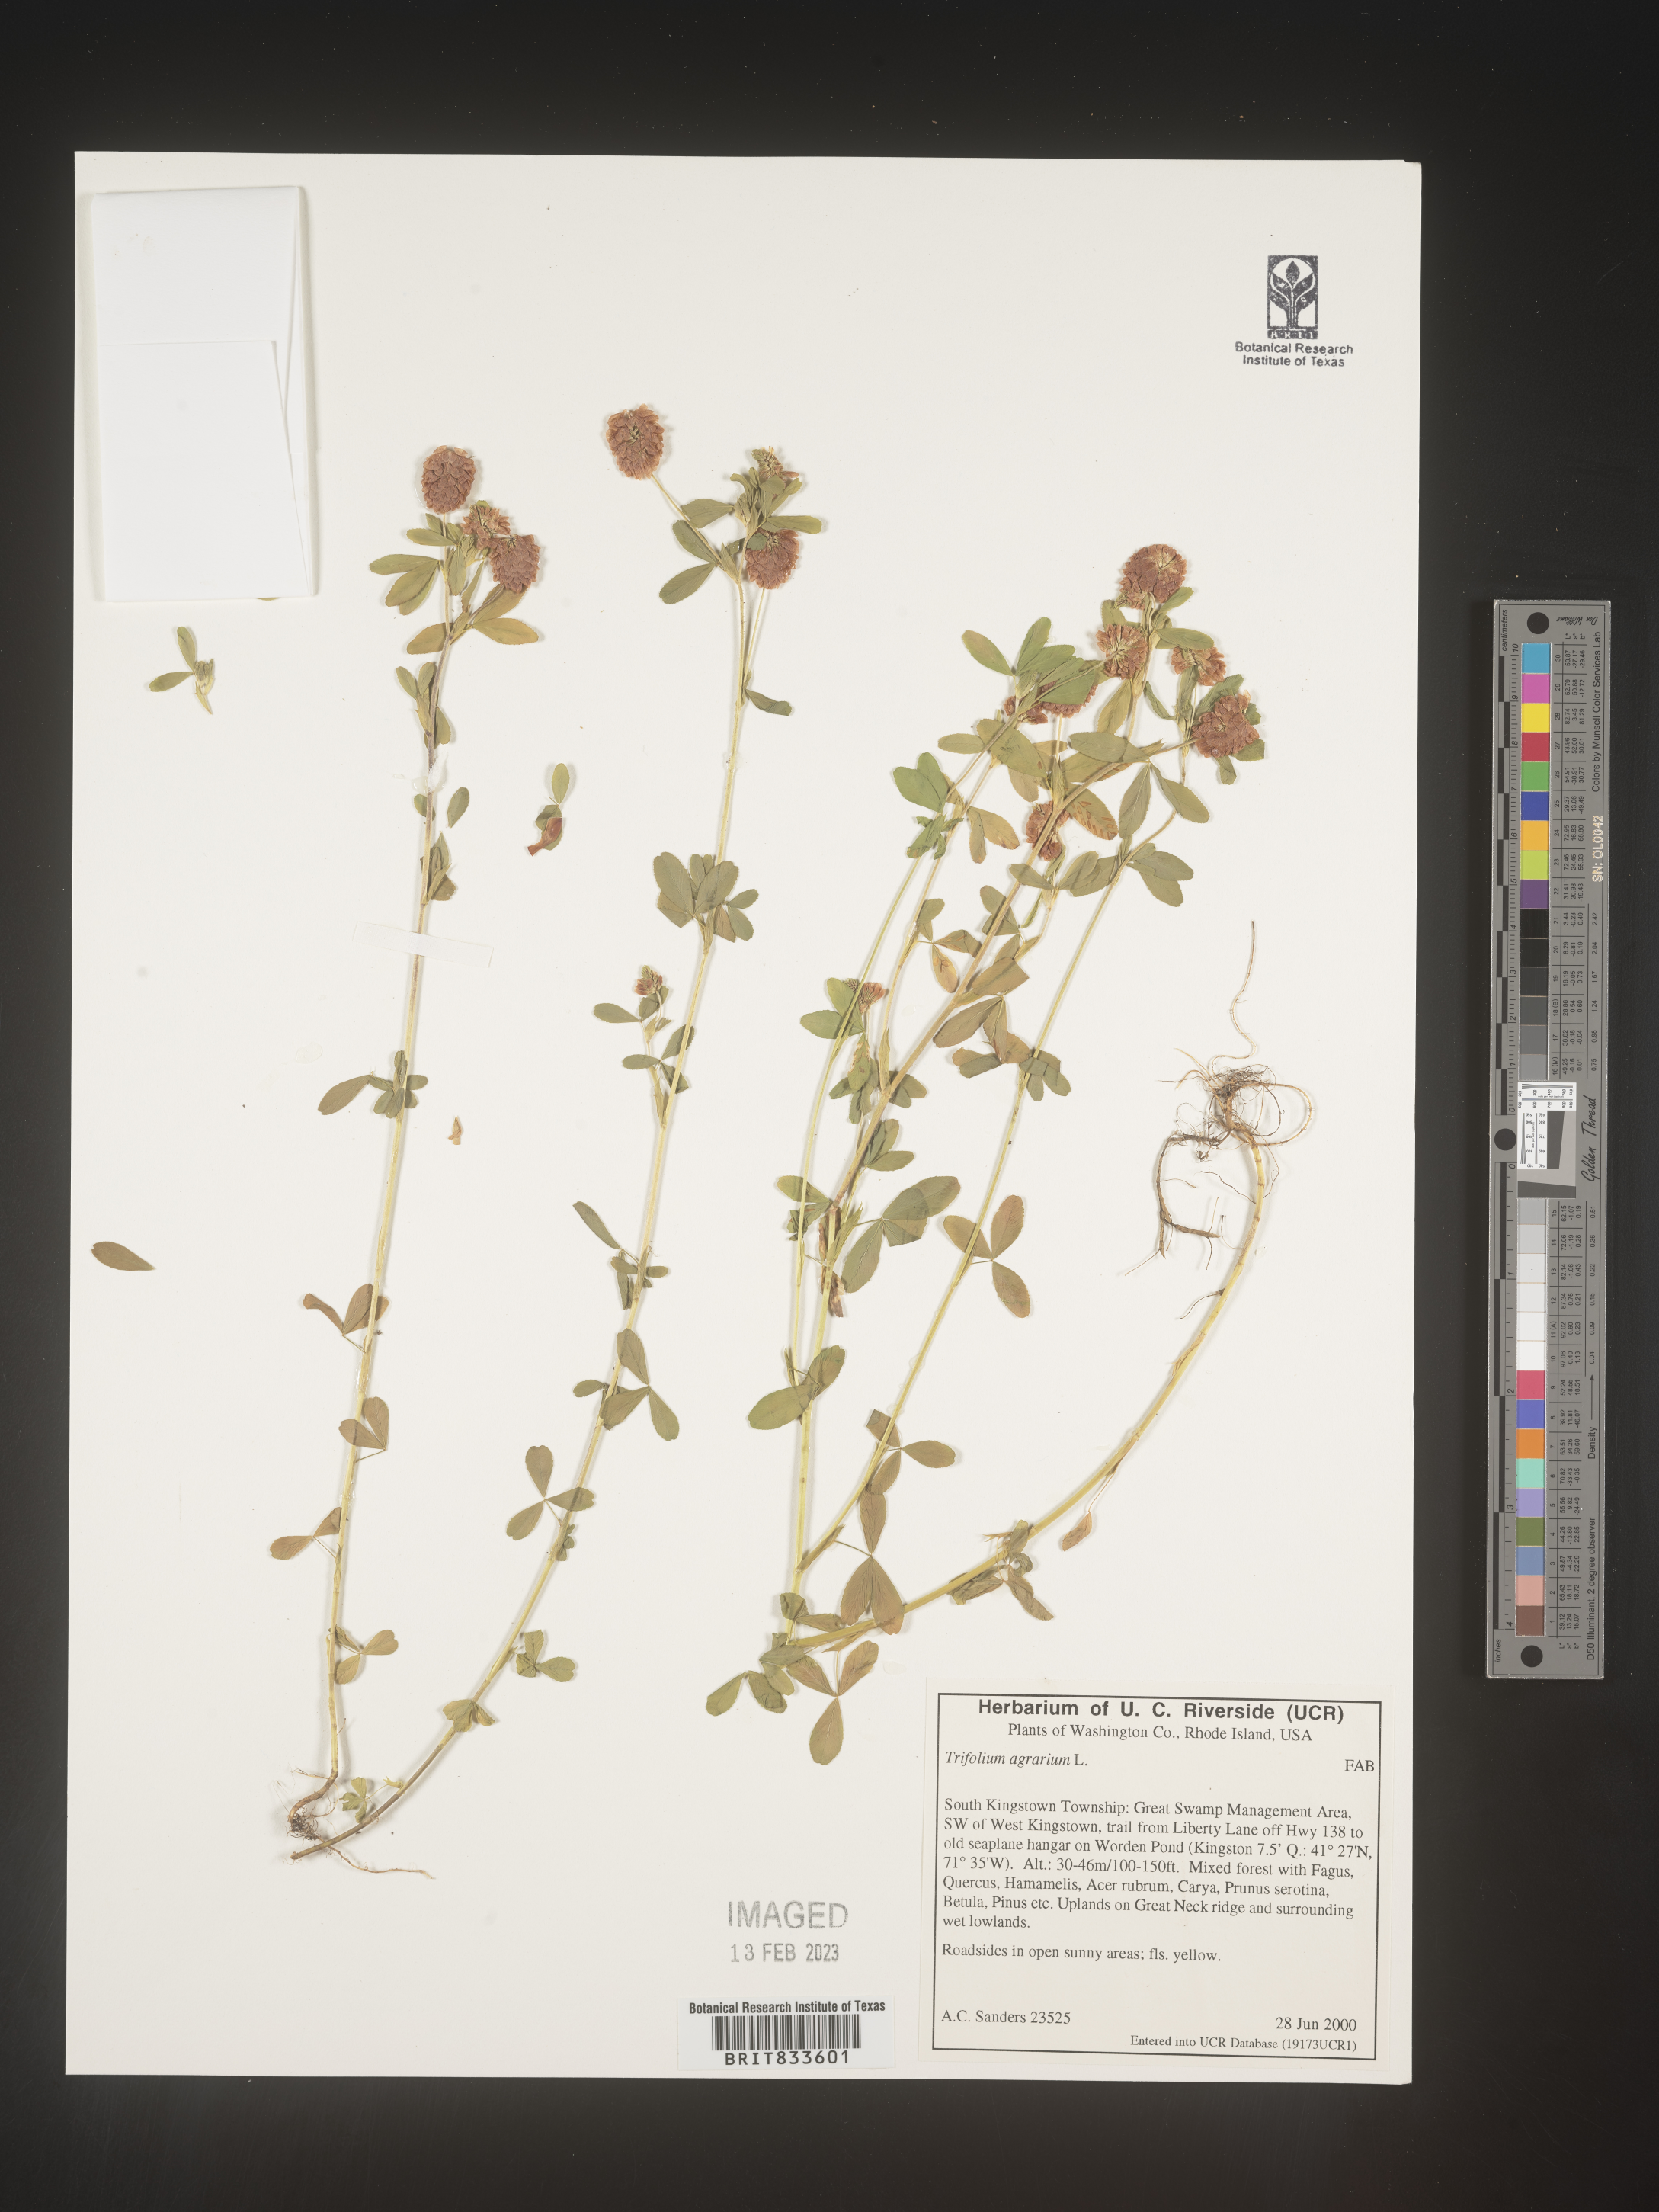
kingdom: Plantae
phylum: Tracheophyta
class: Magnoliopsida
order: Fabales
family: Fabaceae
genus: Trifolium
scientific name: Trifolium agrarium
